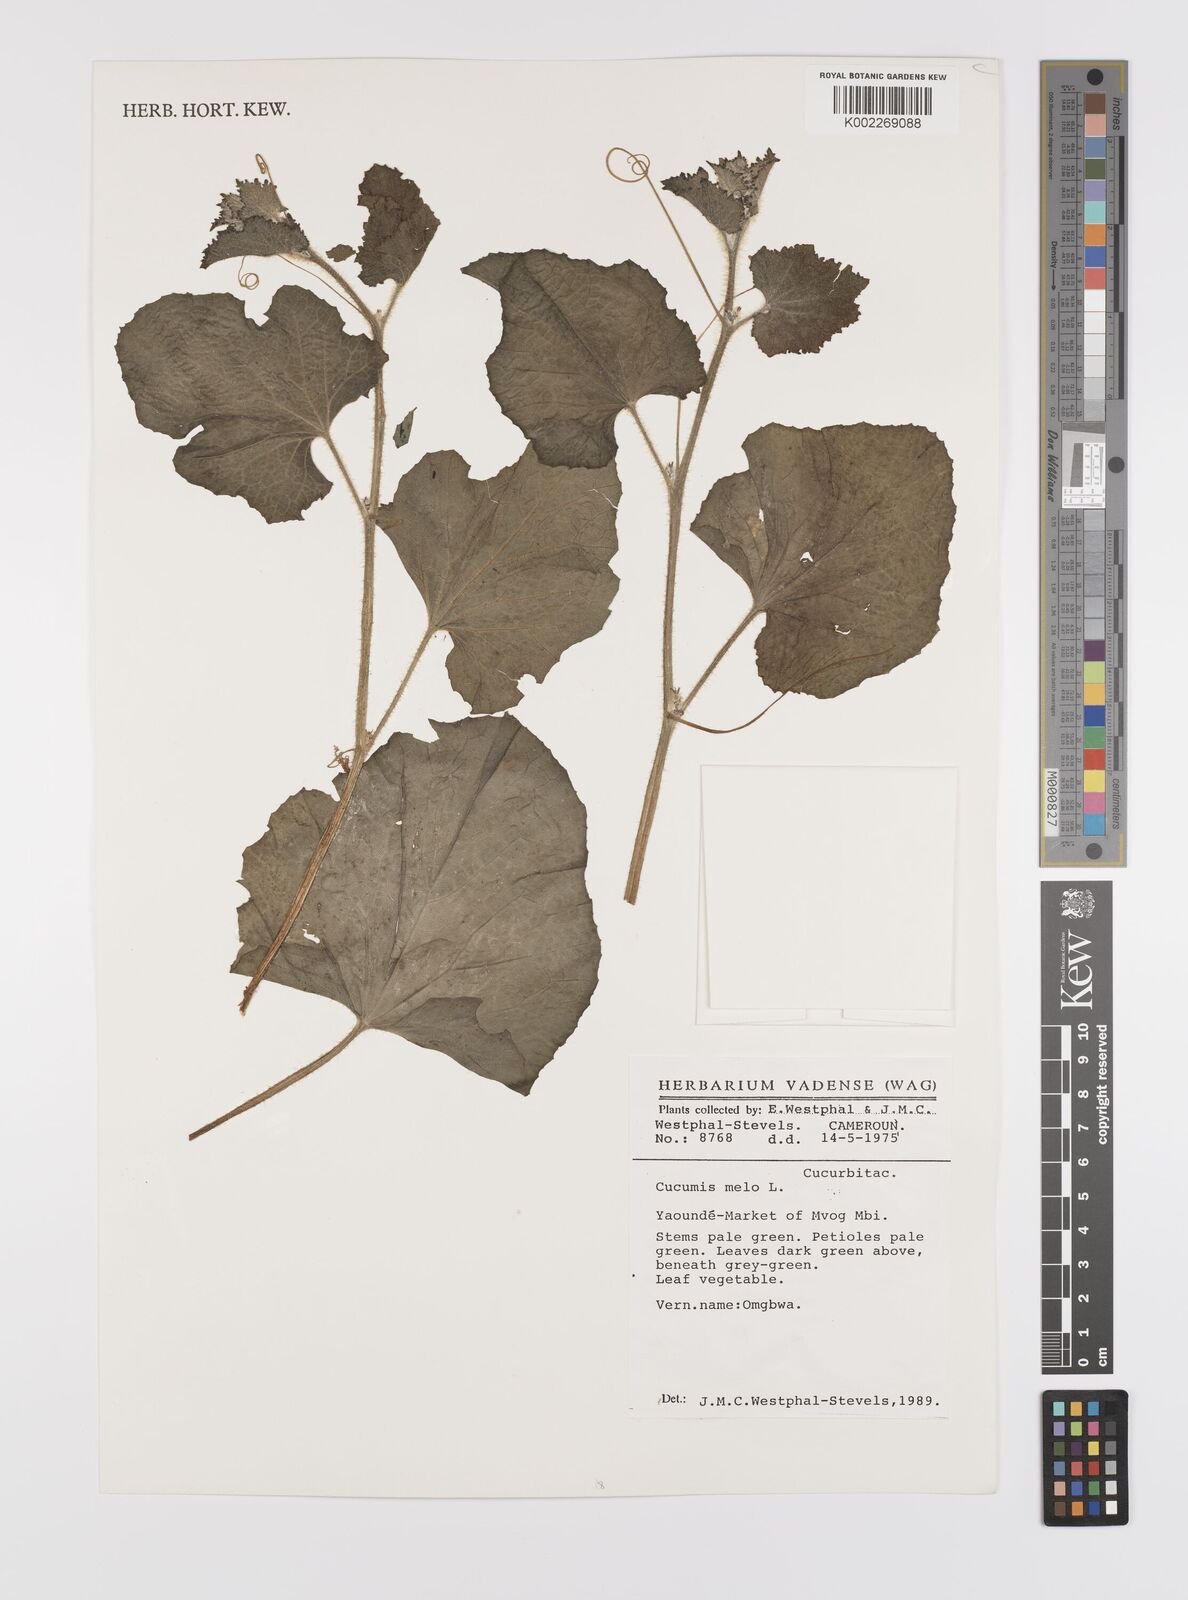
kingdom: Plantae
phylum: Tracheophyta
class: Magnoliopsida
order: Cucurbitales
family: Cucurbitaceae
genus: Cucumis
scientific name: Cucumis melo
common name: Melon
